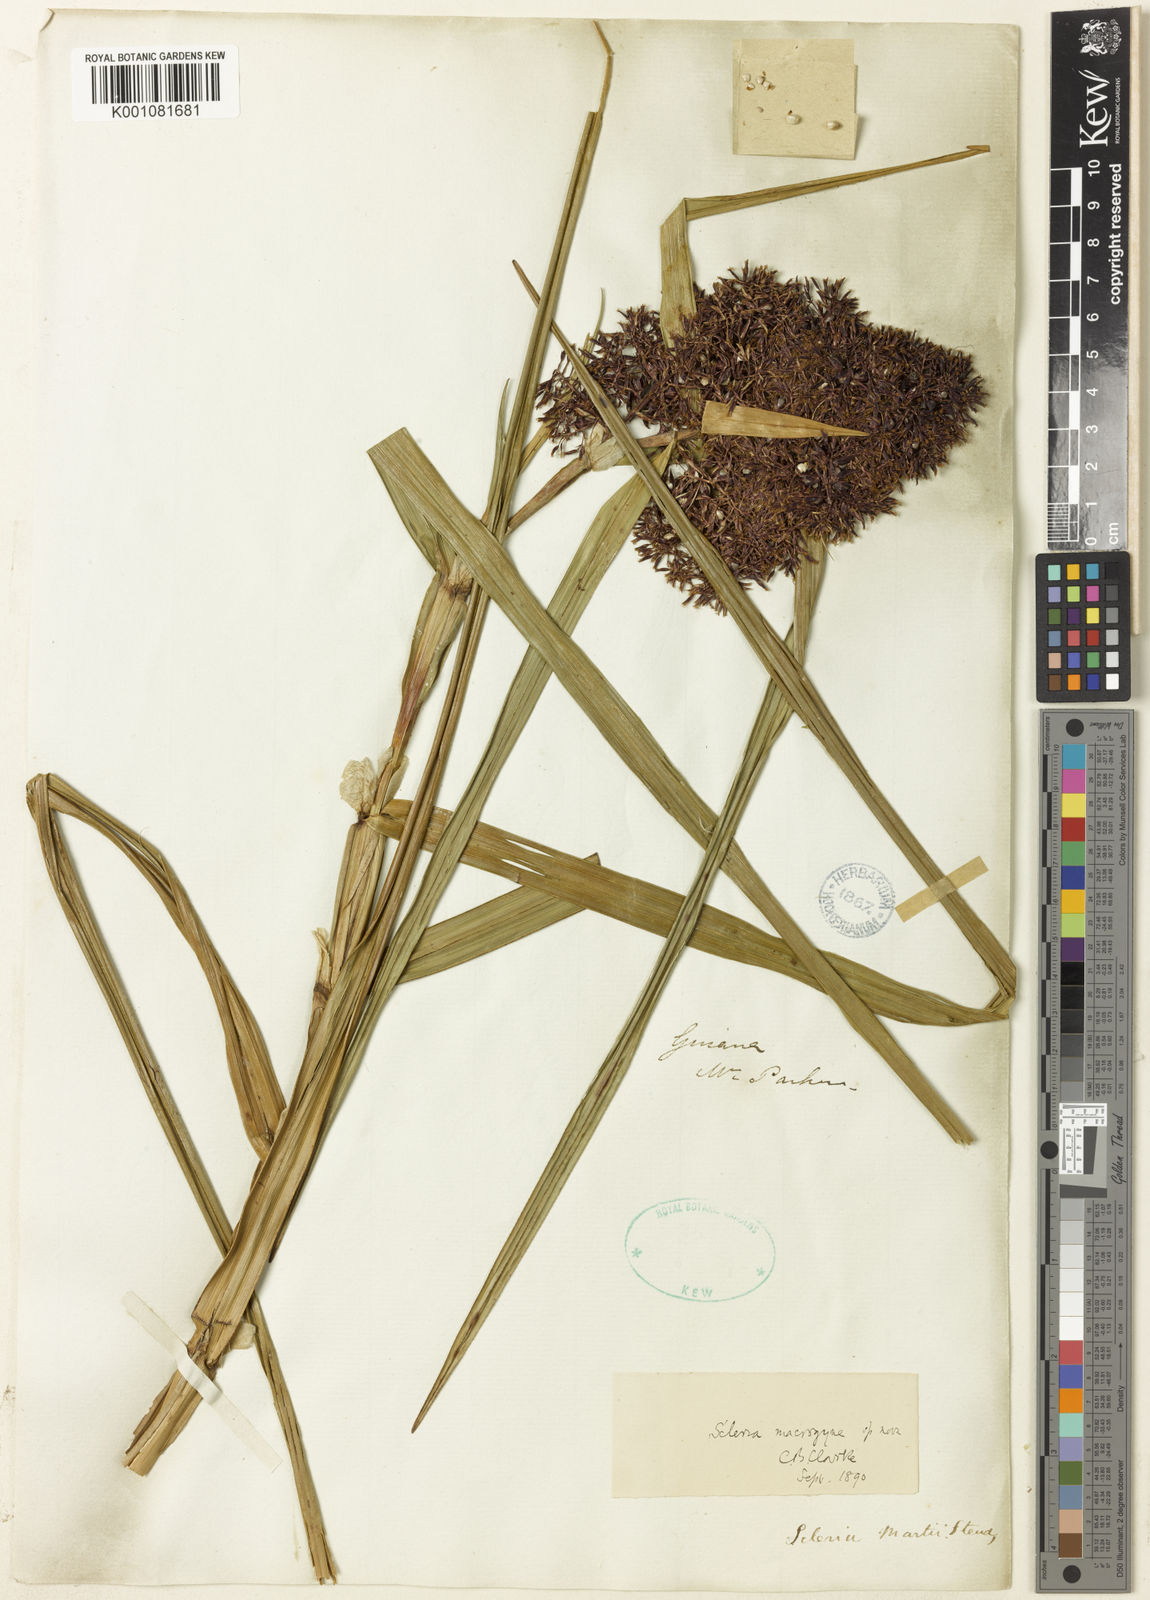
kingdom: Plantae
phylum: Tracheophyta
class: Liliopsida
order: Poales
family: Cyperaceae
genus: Scleria
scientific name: Scleria macrogyne
